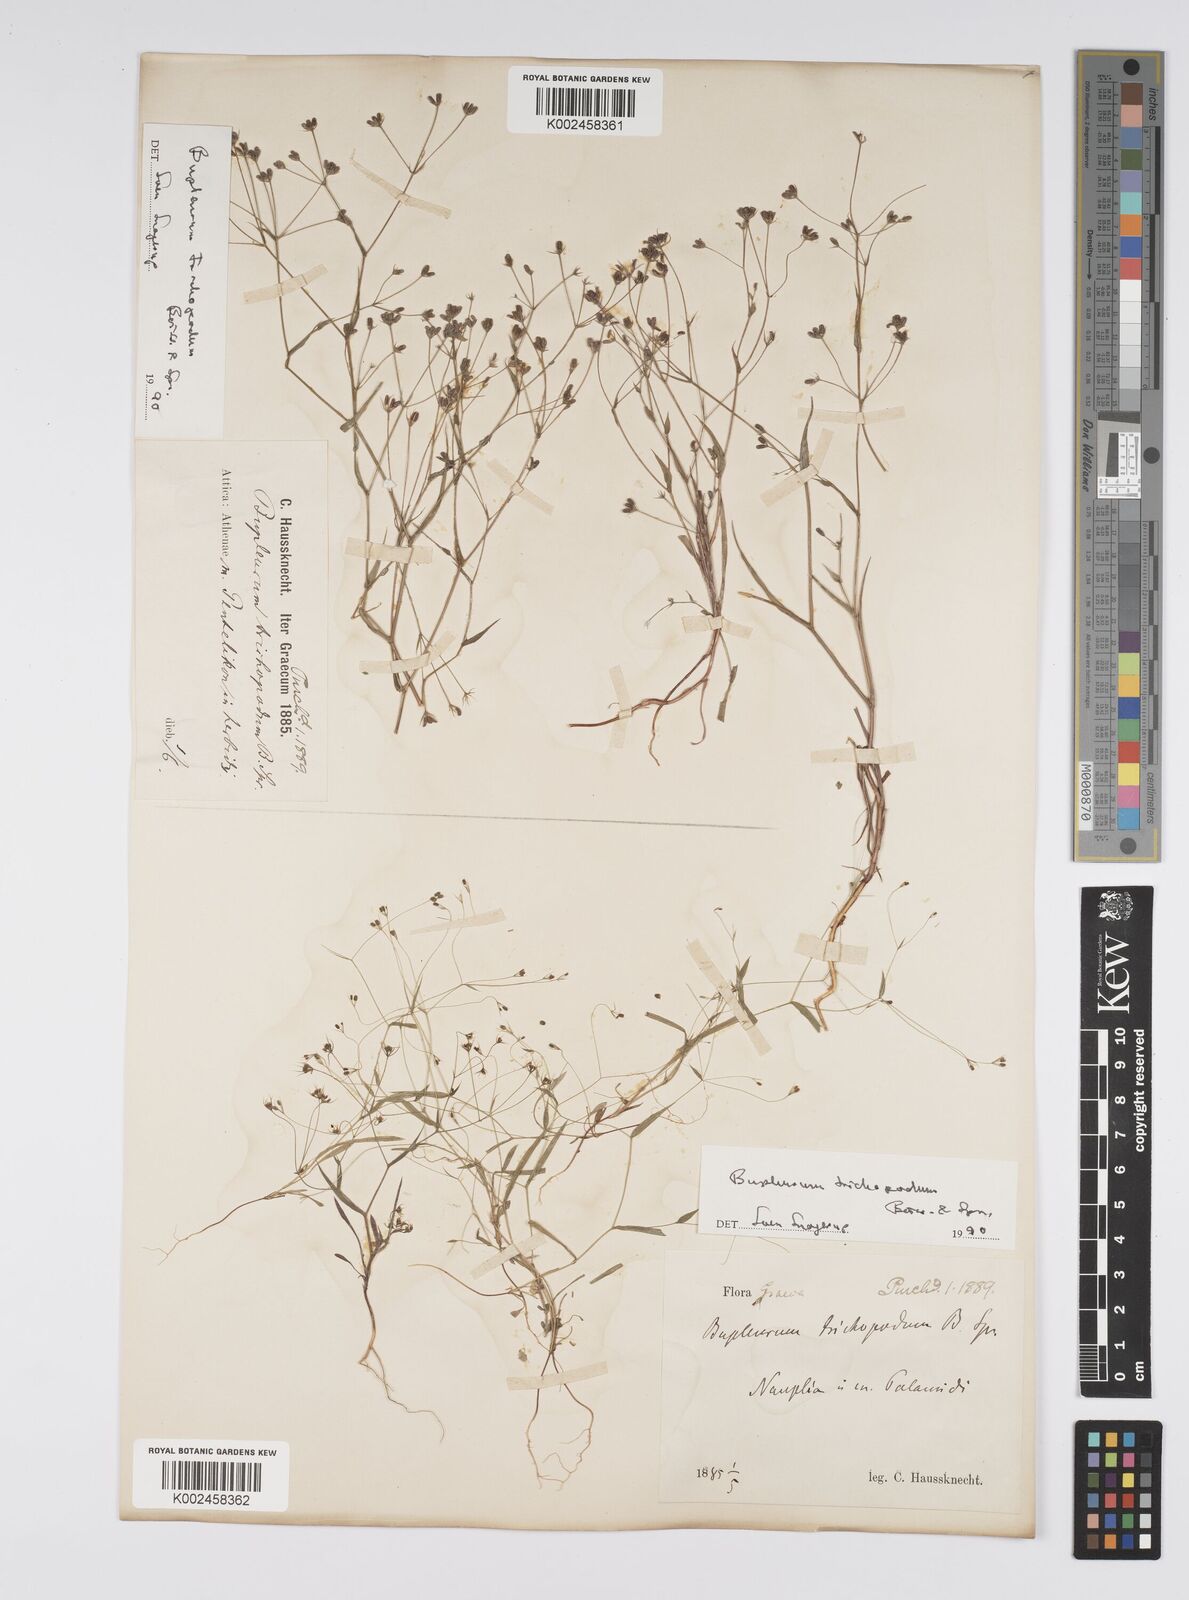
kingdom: Plantae
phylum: Tracheophyta
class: Magnoliopsida
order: Apiales
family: Apiaceae
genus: Bupleurum
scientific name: Bupleurum trichopodum
